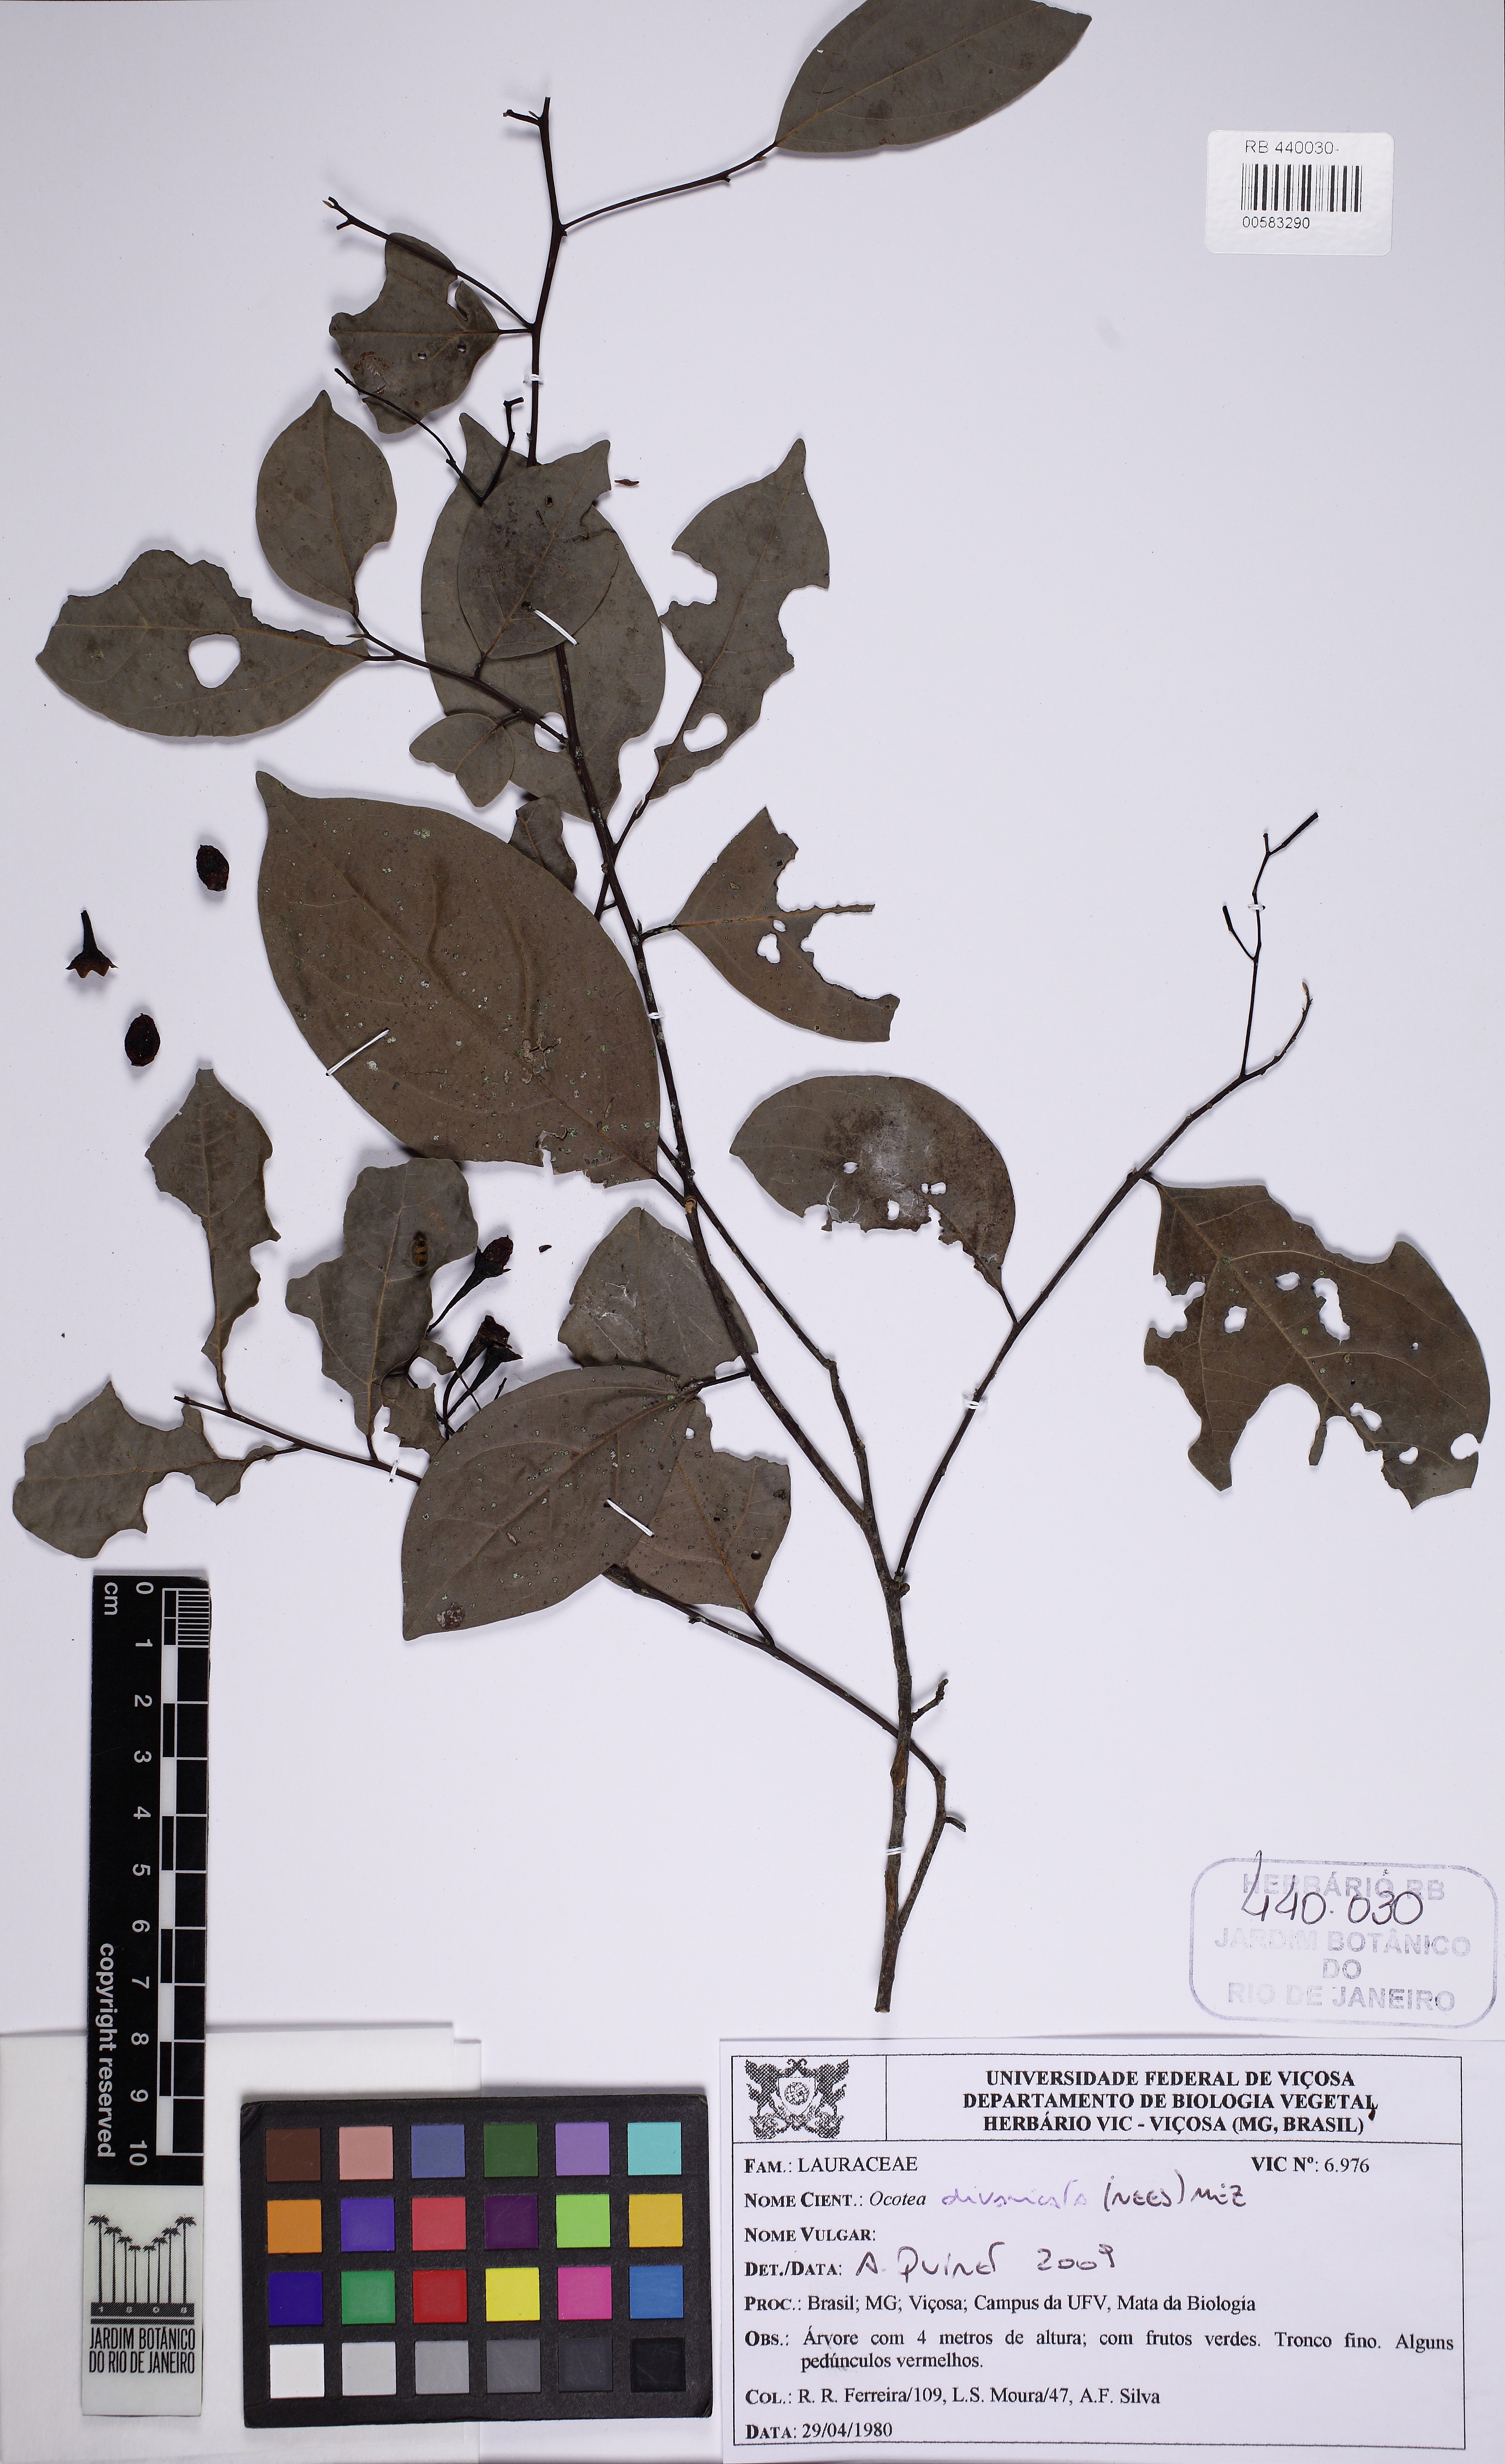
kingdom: Plantae
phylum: Tracheophyta
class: Magnoliopsida
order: Laurales
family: Lauraceae
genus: Ocotea
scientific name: Ocotea divaricata
